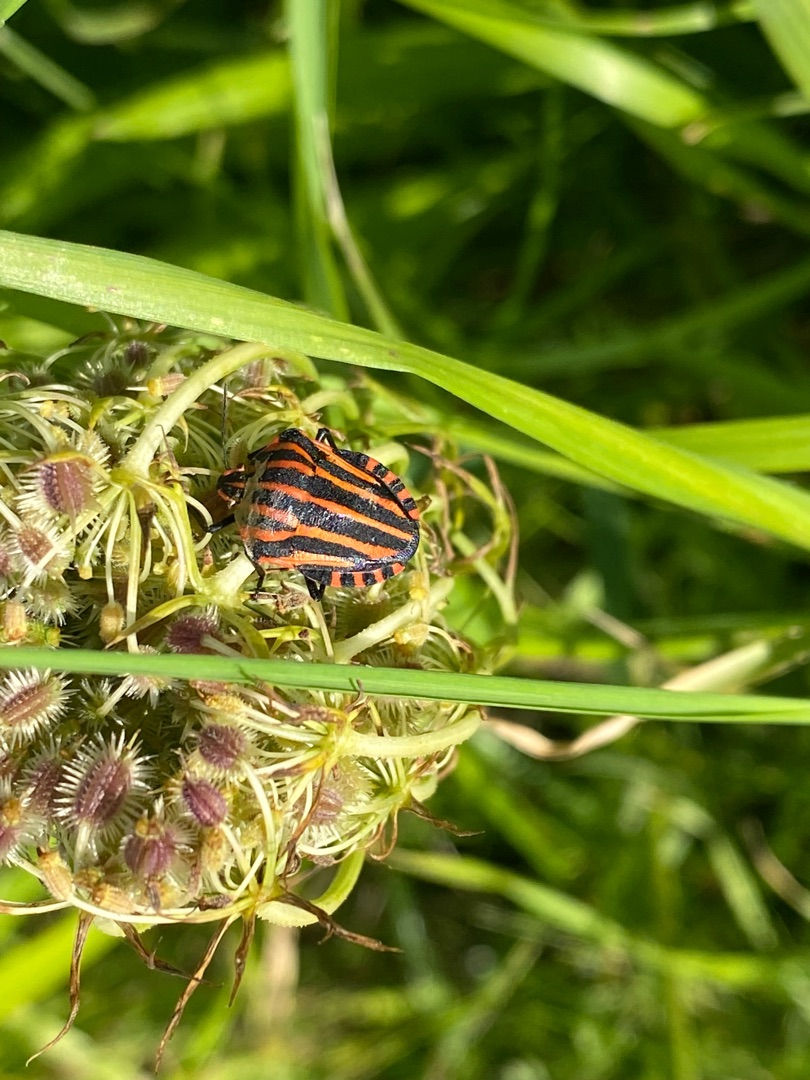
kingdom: Animalia
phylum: Arthropoda
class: Insecta
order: Hemiptera
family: Pentatomidae
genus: Graphosoma
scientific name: Graphosoma italicum
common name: Stribetæge
